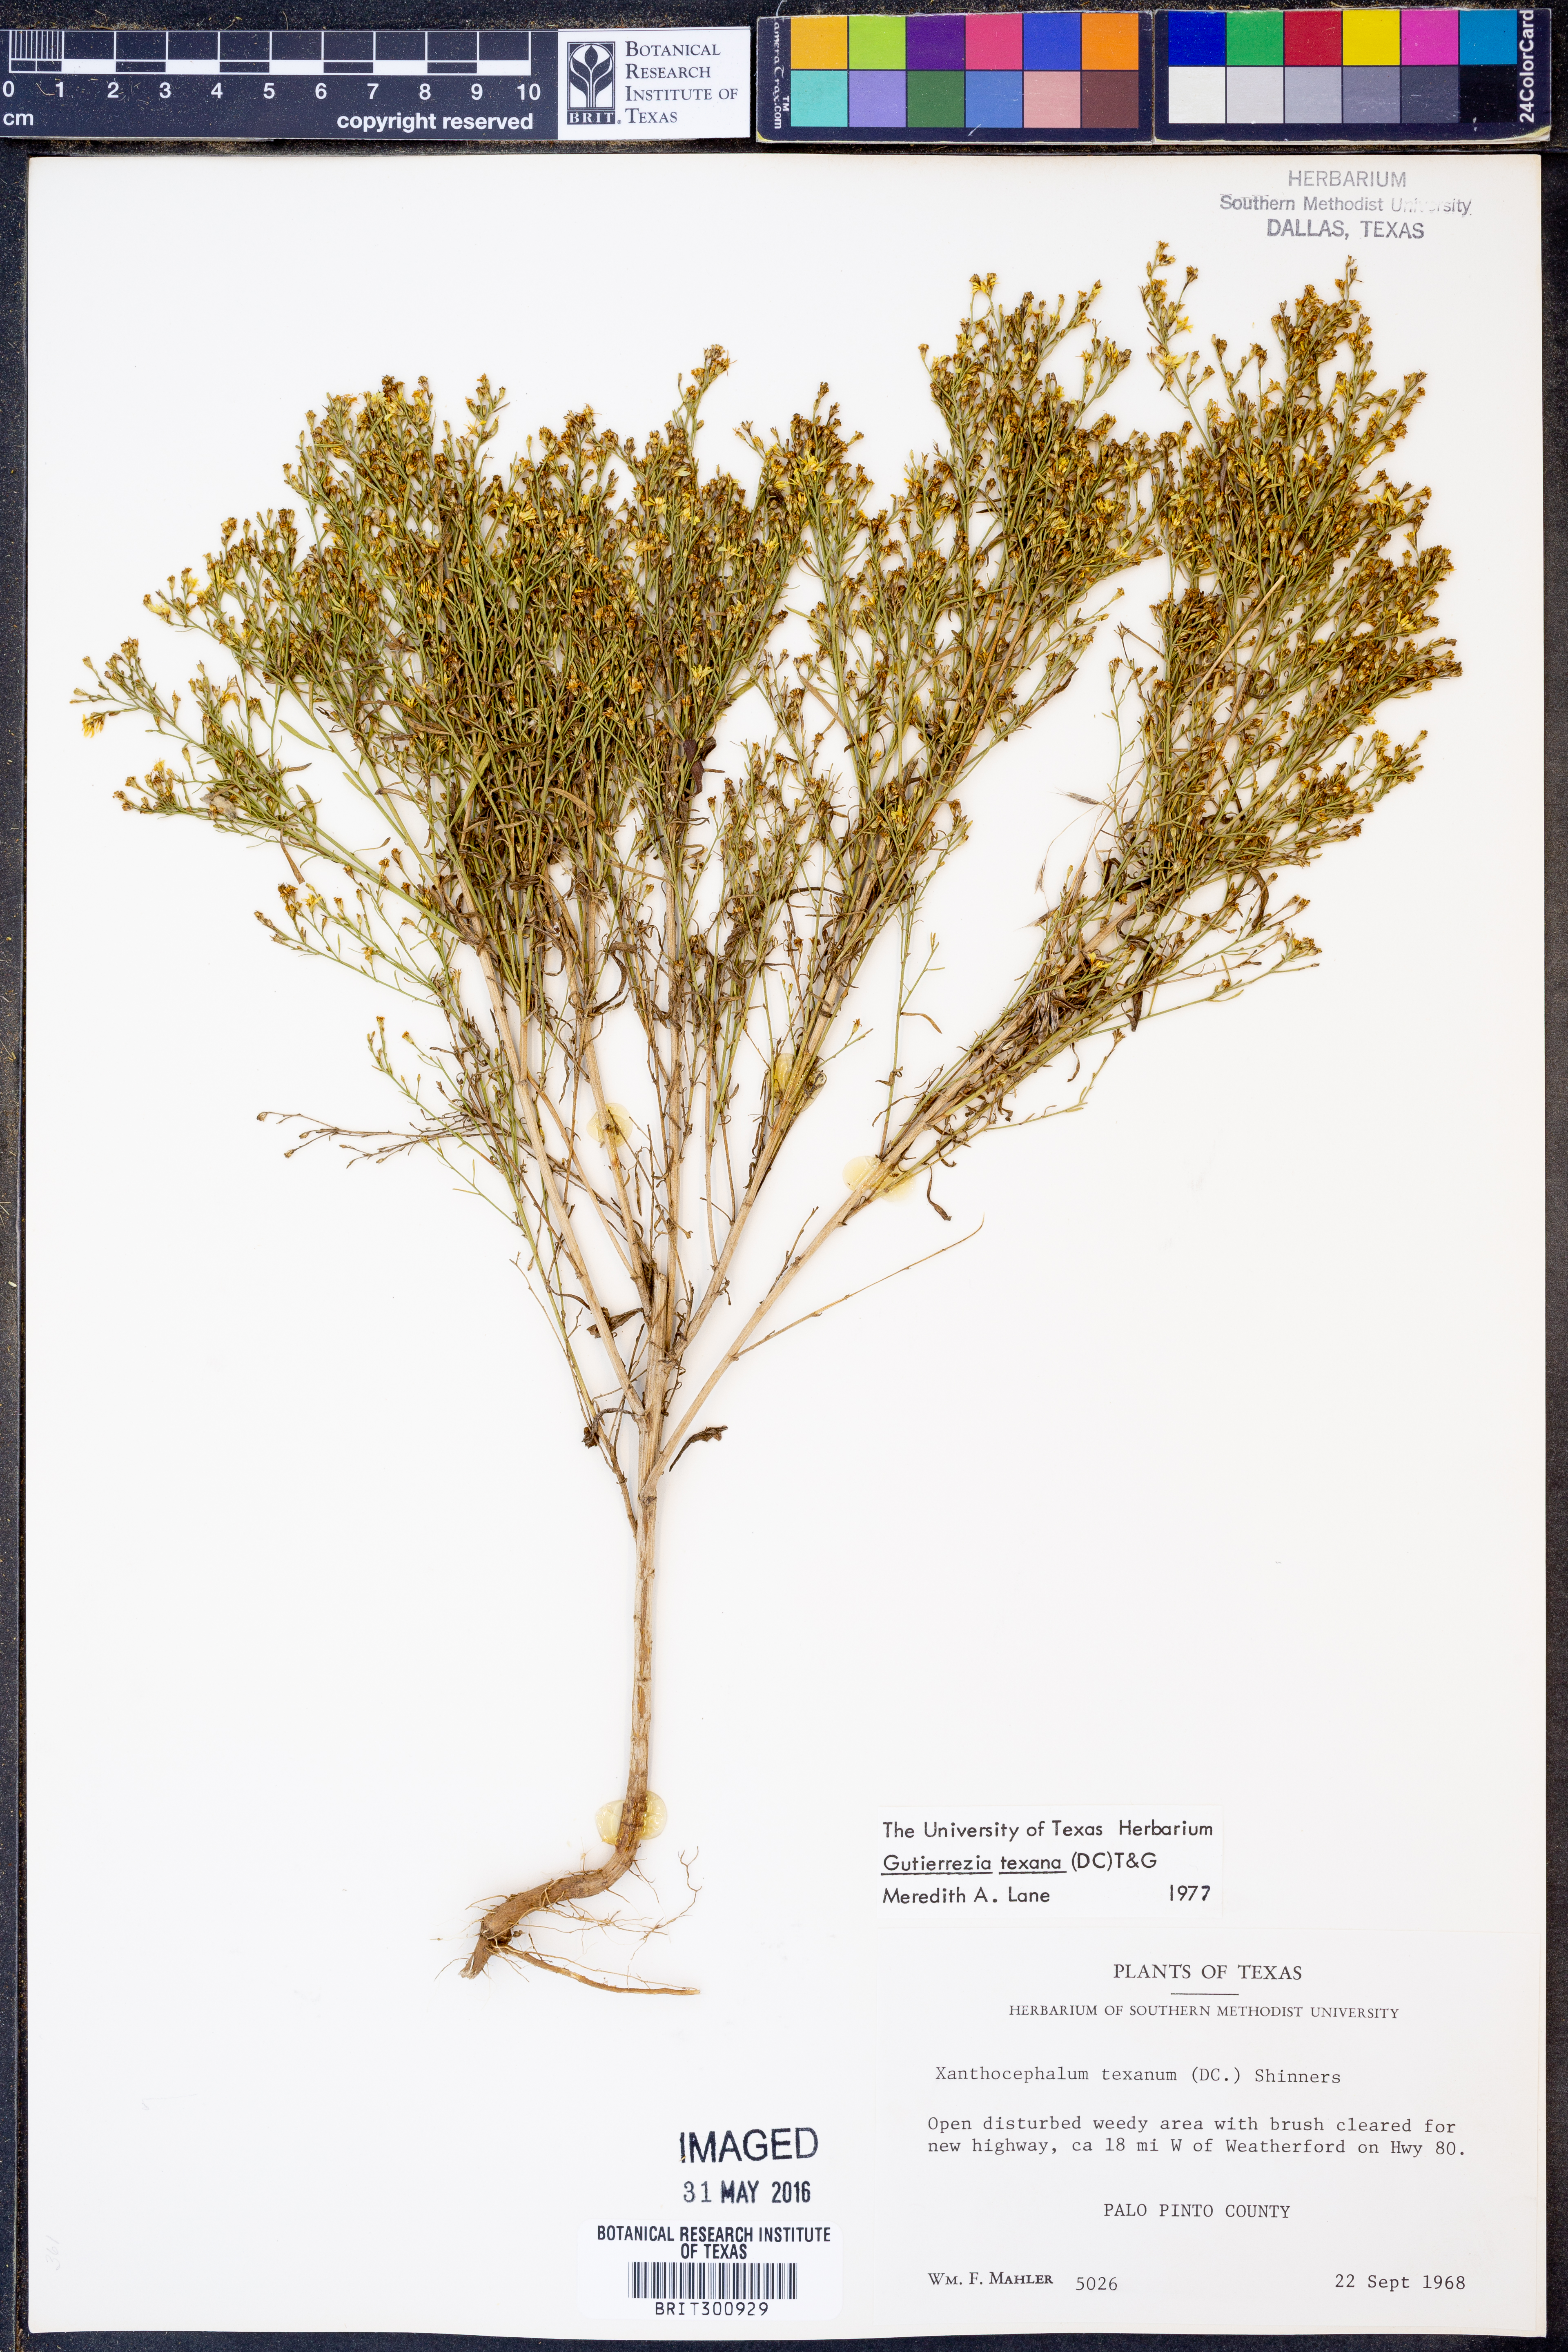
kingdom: Plantae
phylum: Tracheophyta
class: Magnoliopsida
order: Asterales
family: Asteraceae
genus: Gutierrezia
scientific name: Gutierrezia texana
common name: Texas snakeweed
